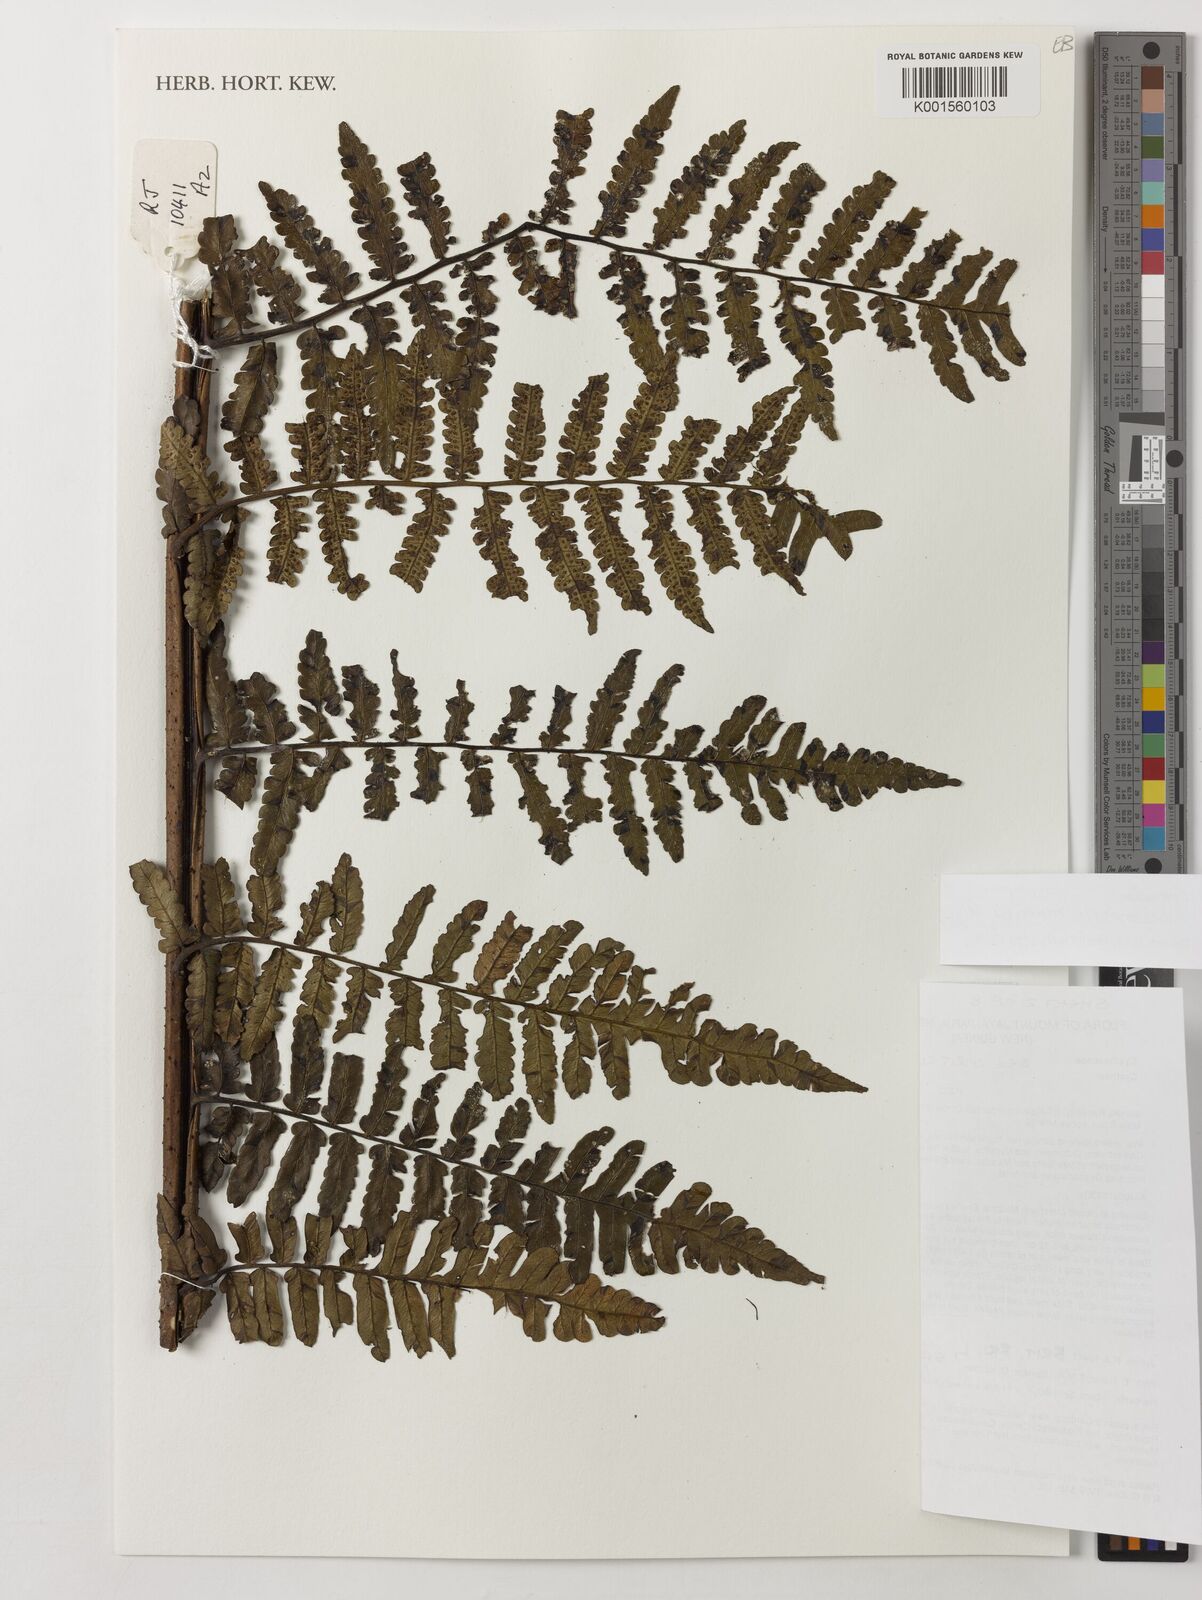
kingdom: Plantae
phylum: Tracheophyta
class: Polypodiopsida
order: Cyatheales
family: Cyatheaceae
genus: Sphaeropteris
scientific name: Sphaeropteris runensis
